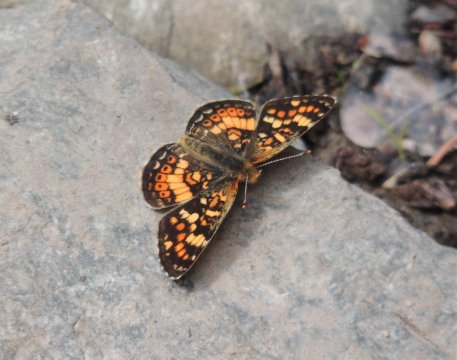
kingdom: Animalia
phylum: Arthropoda
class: Insecta
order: Lepidoptera
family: Nymphalidae
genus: Phyciodes
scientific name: Phyciodes tharos
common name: Field Crescent
